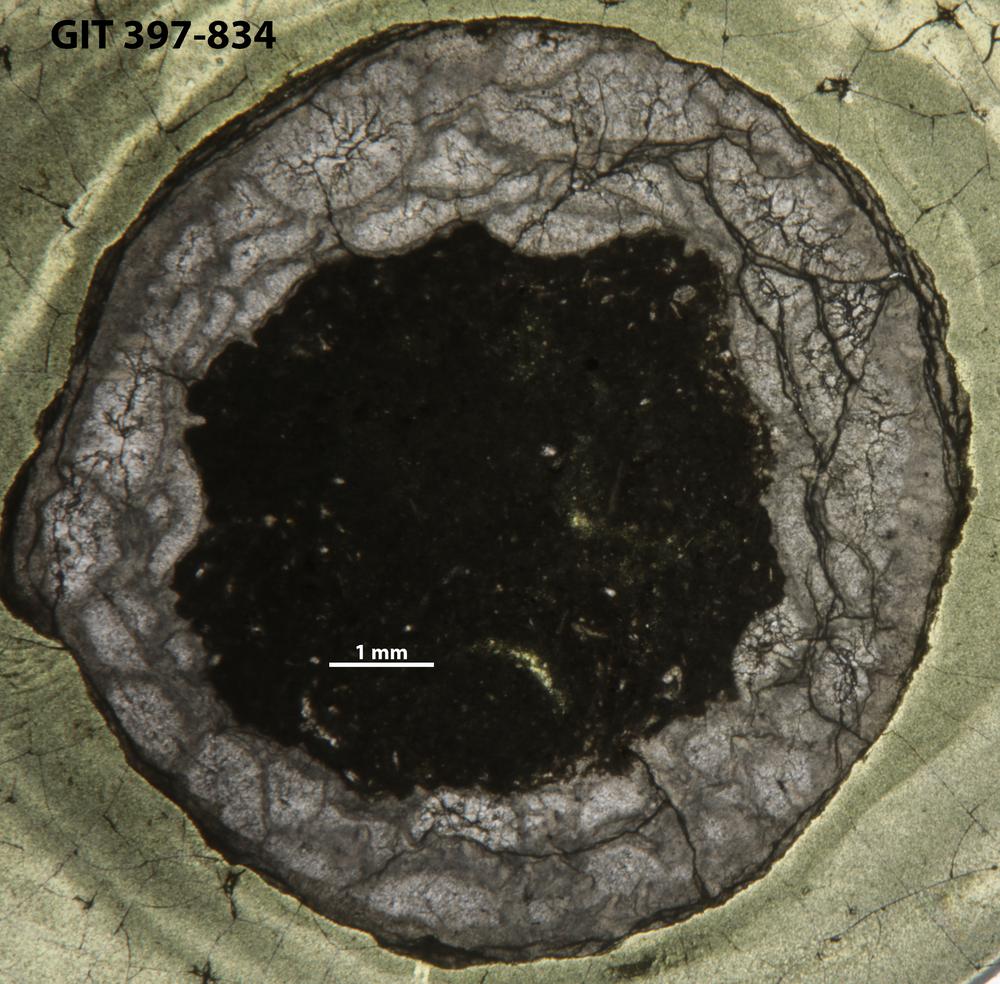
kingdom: Animalia
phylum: Cnidaria
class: Anthozoa
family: Cystiphyllidae
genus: Microplasma
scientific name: Microplasma
